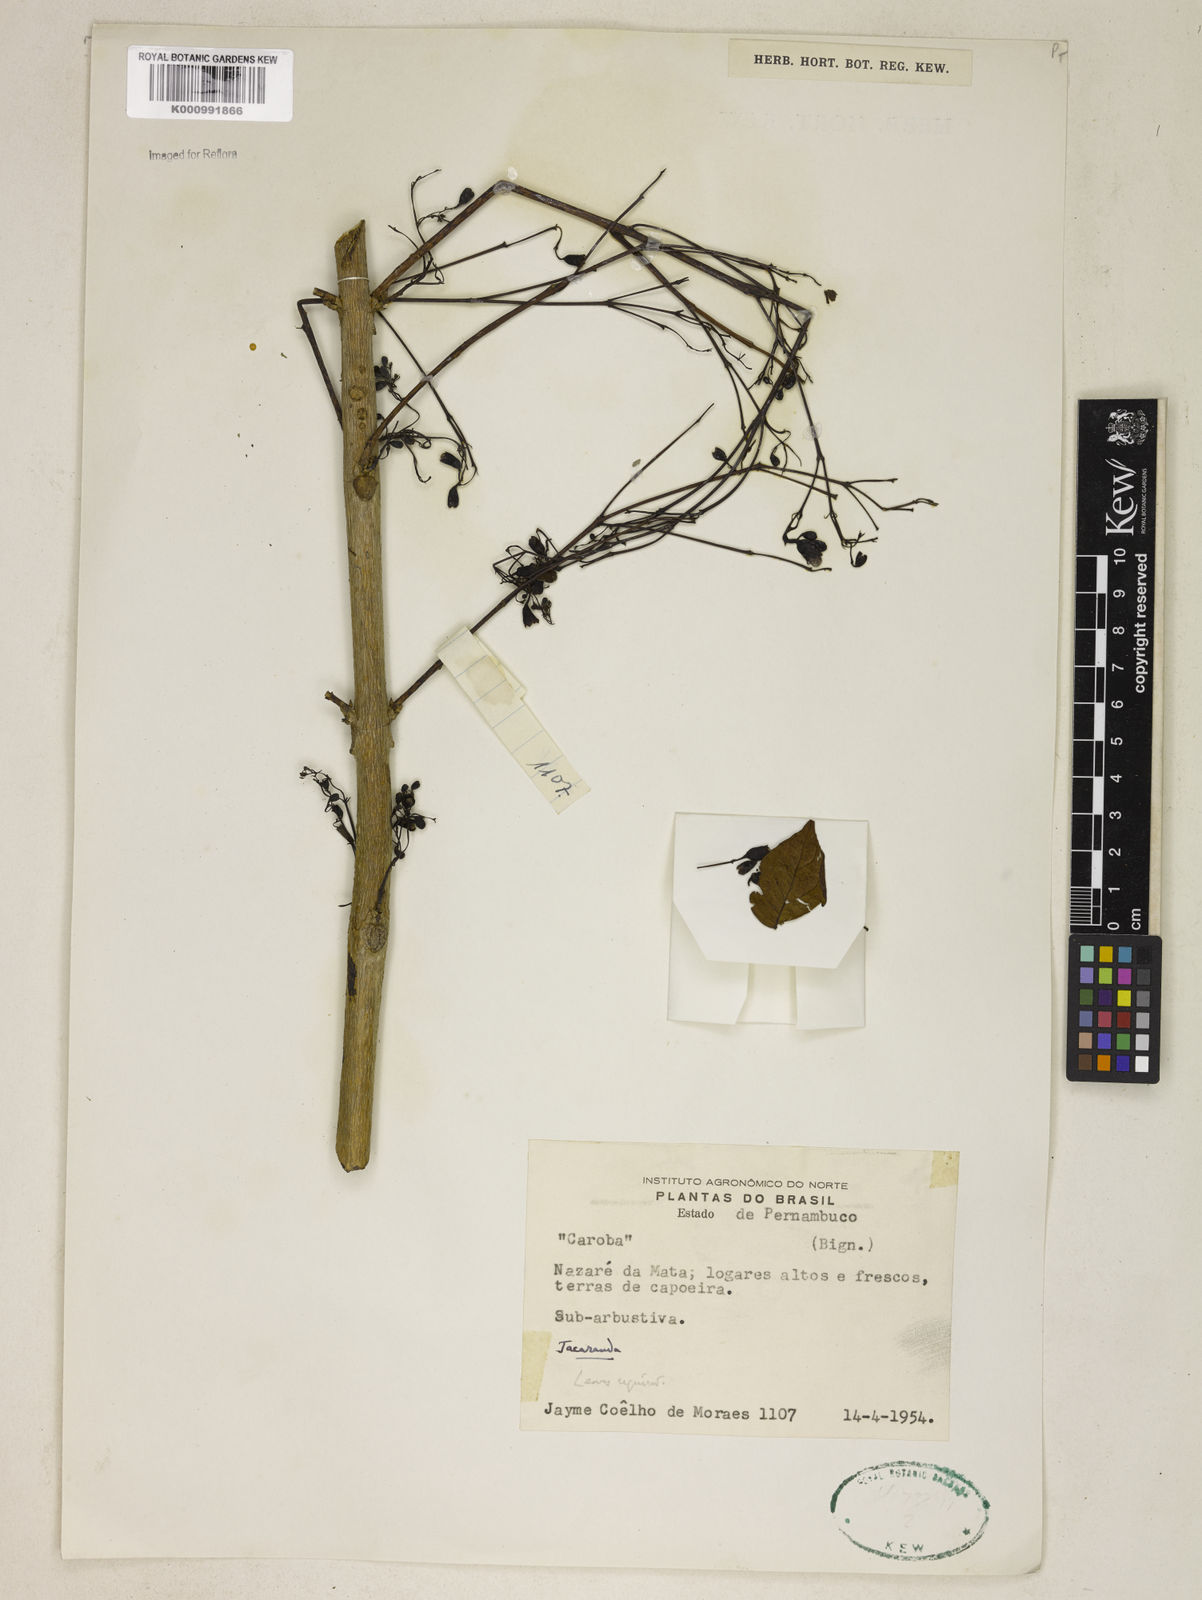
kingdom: Plantae
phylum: Tracheophyta
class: Magnoliopsida
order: Lamiales
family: Bignoniaceae
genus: Jacaranda
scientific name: Jacaranda
